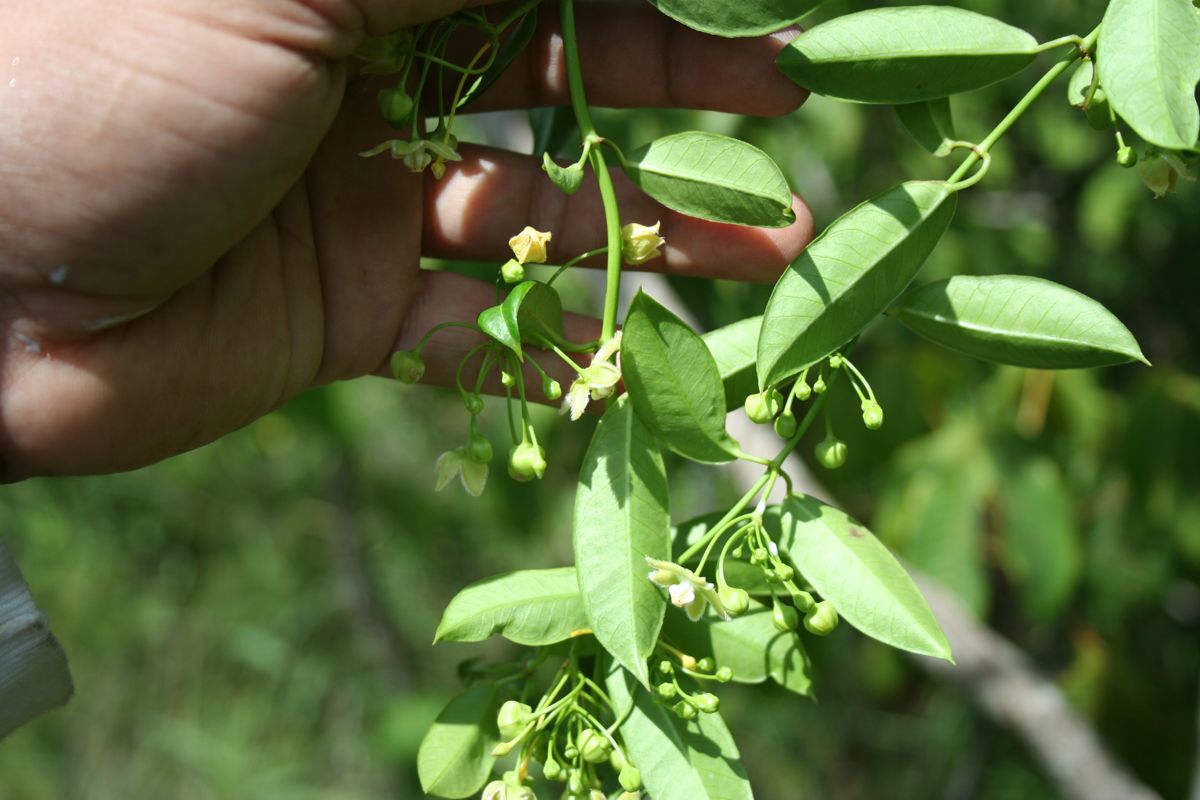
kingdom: Plantae
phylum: Tracheophyta
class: Magnoliopsida
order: Gentianales
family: Apocynaceae
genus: Vailia
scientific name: Vailia anomala
